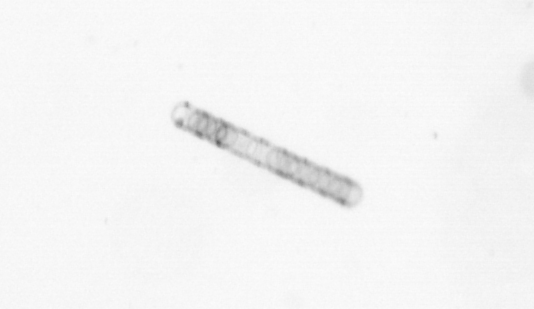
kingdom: Chromista
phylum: Ochrophyta
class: Bacillariophyceae
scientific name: Bacillariophyceae
